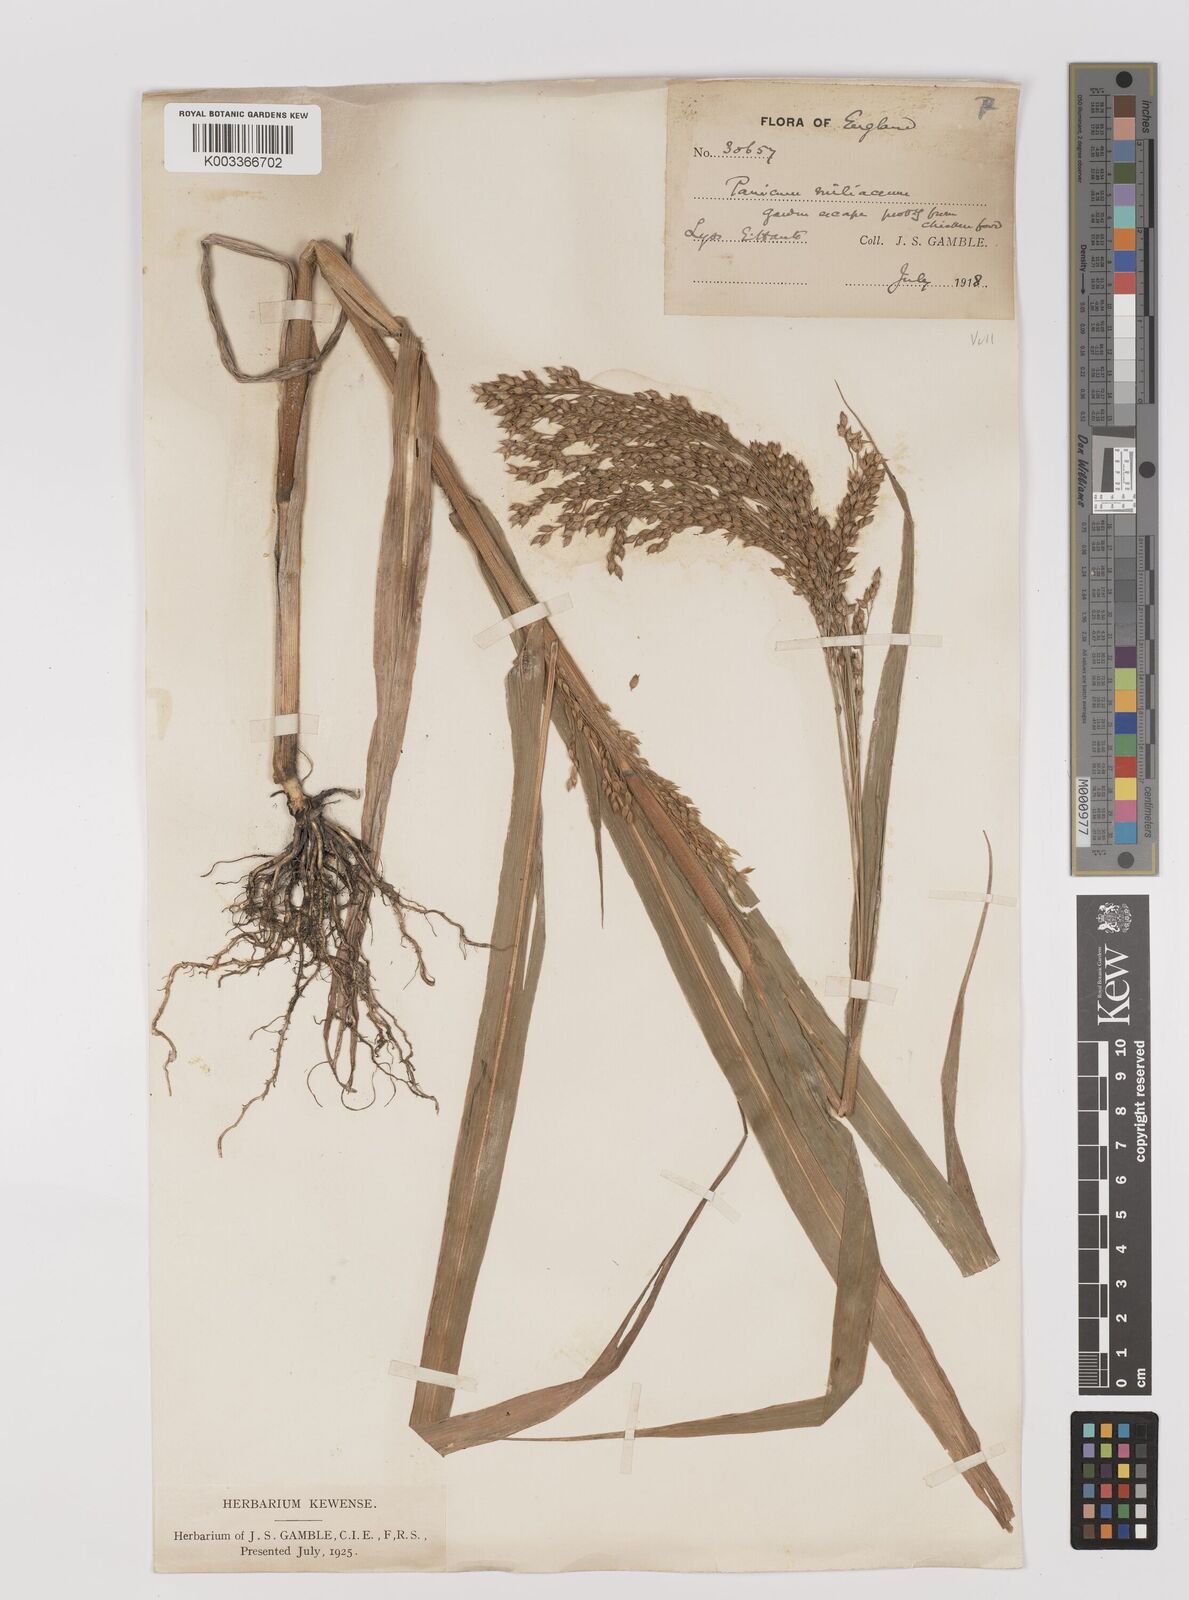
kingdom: Plantae
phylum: Tracheophyta
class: Liliopsida
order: Poales
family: Poaceae
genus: Panicum
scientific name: Panicum miliaceum
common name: Common millet
